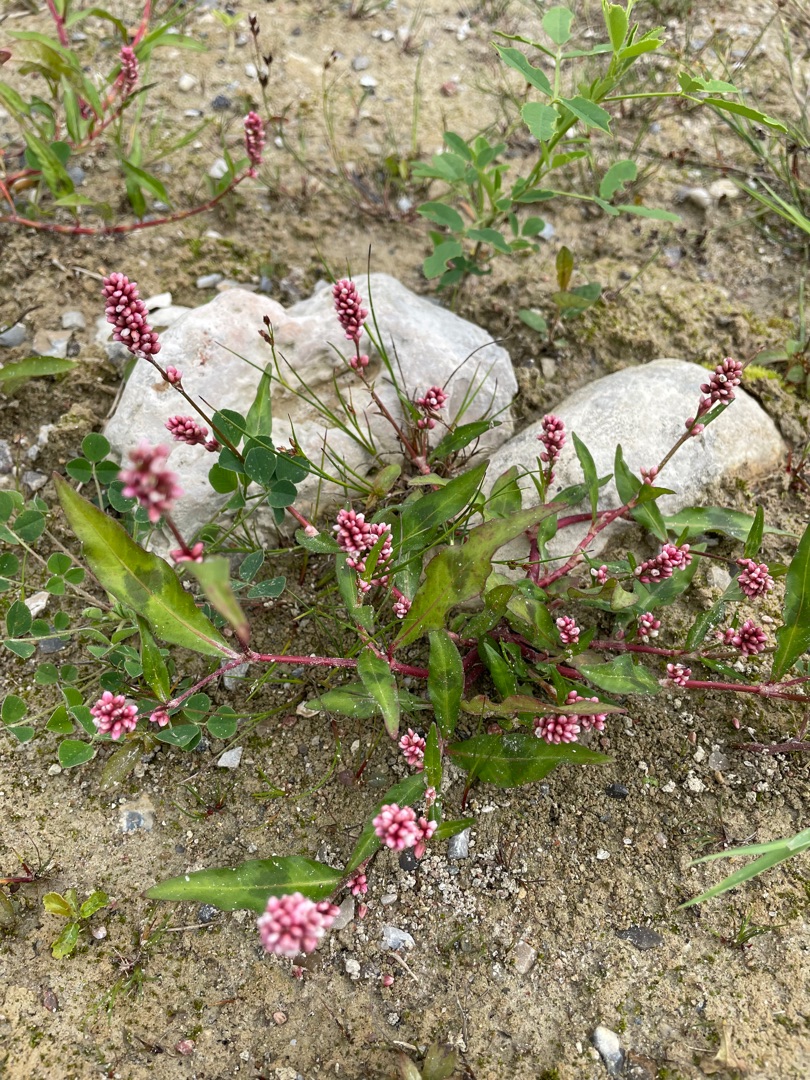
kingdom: Plantae
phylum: Tracheophyta
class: Magnoliopsida
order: Caryophyllales
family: Polygonaceae
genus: Persicaria
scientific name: Persicaria maculosa
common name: Fersken-pileurt
